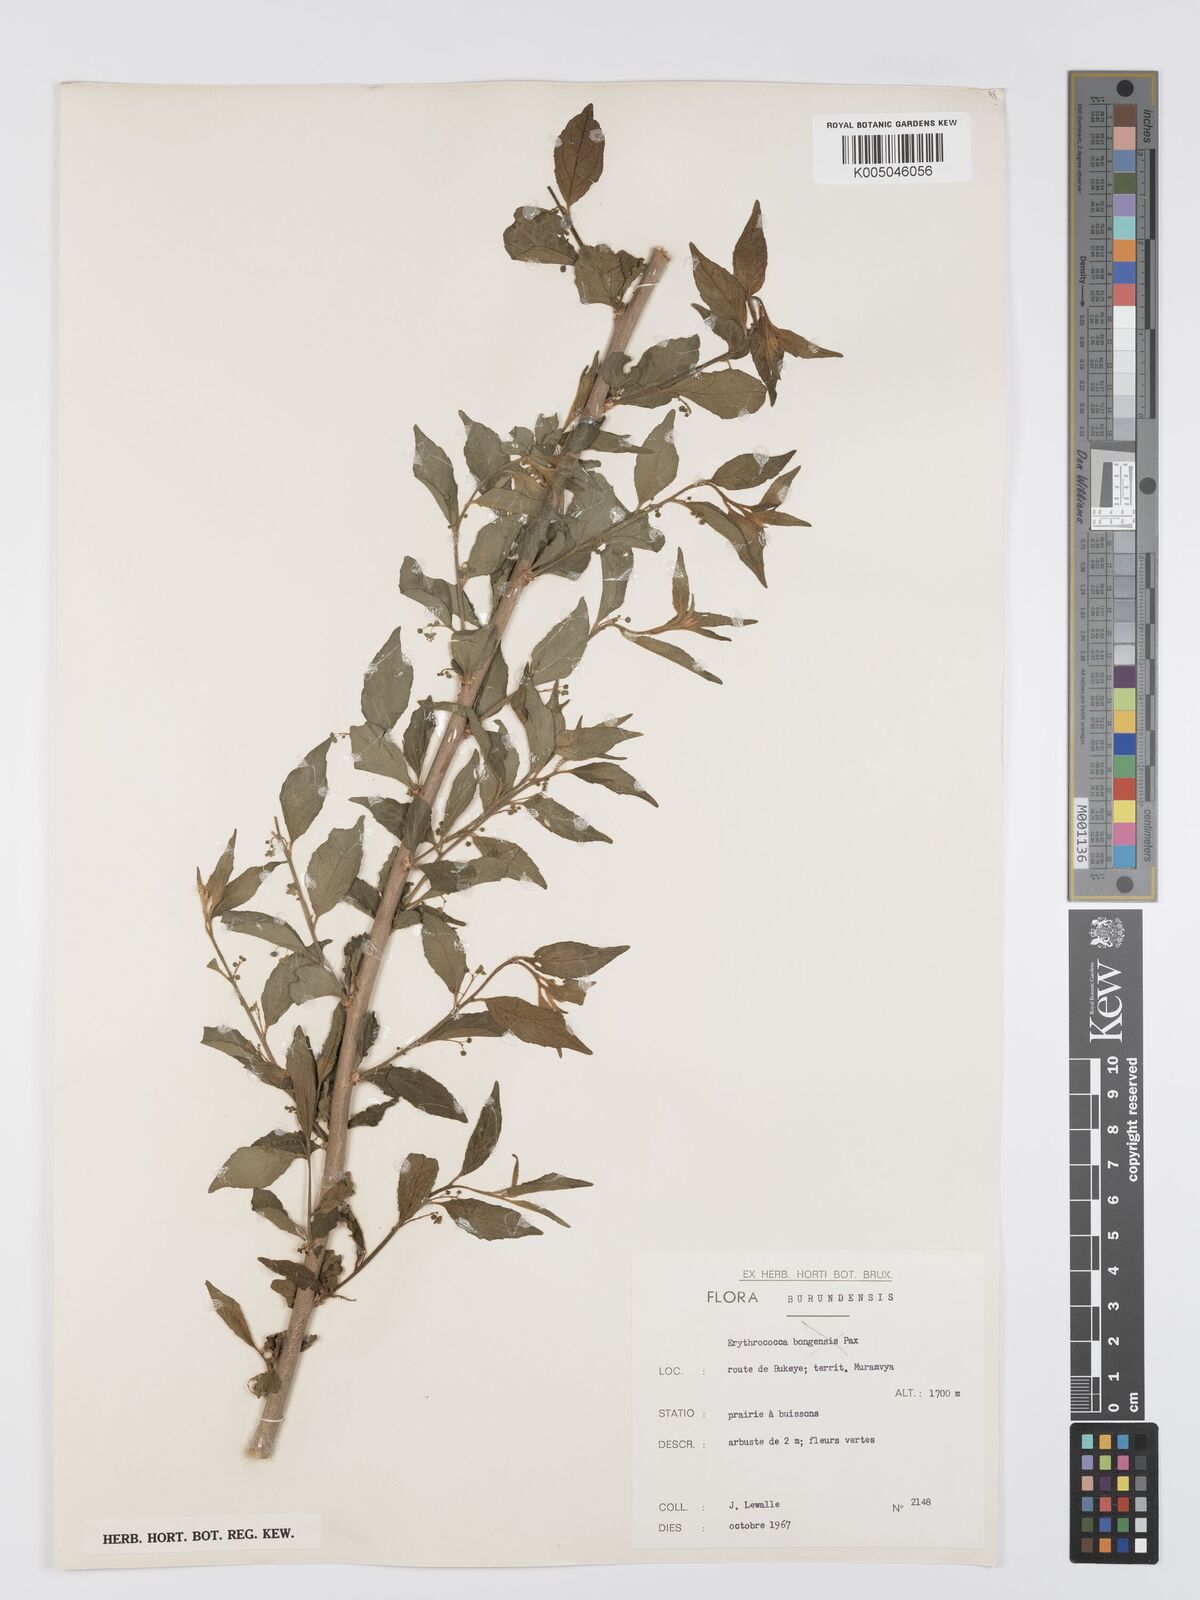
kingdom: Plantae
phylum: Tracheophyta
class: Magnoliopsida
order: Malpighiales
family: Euphorbiaceae
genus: Erythrococca
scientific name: Erythrococca
